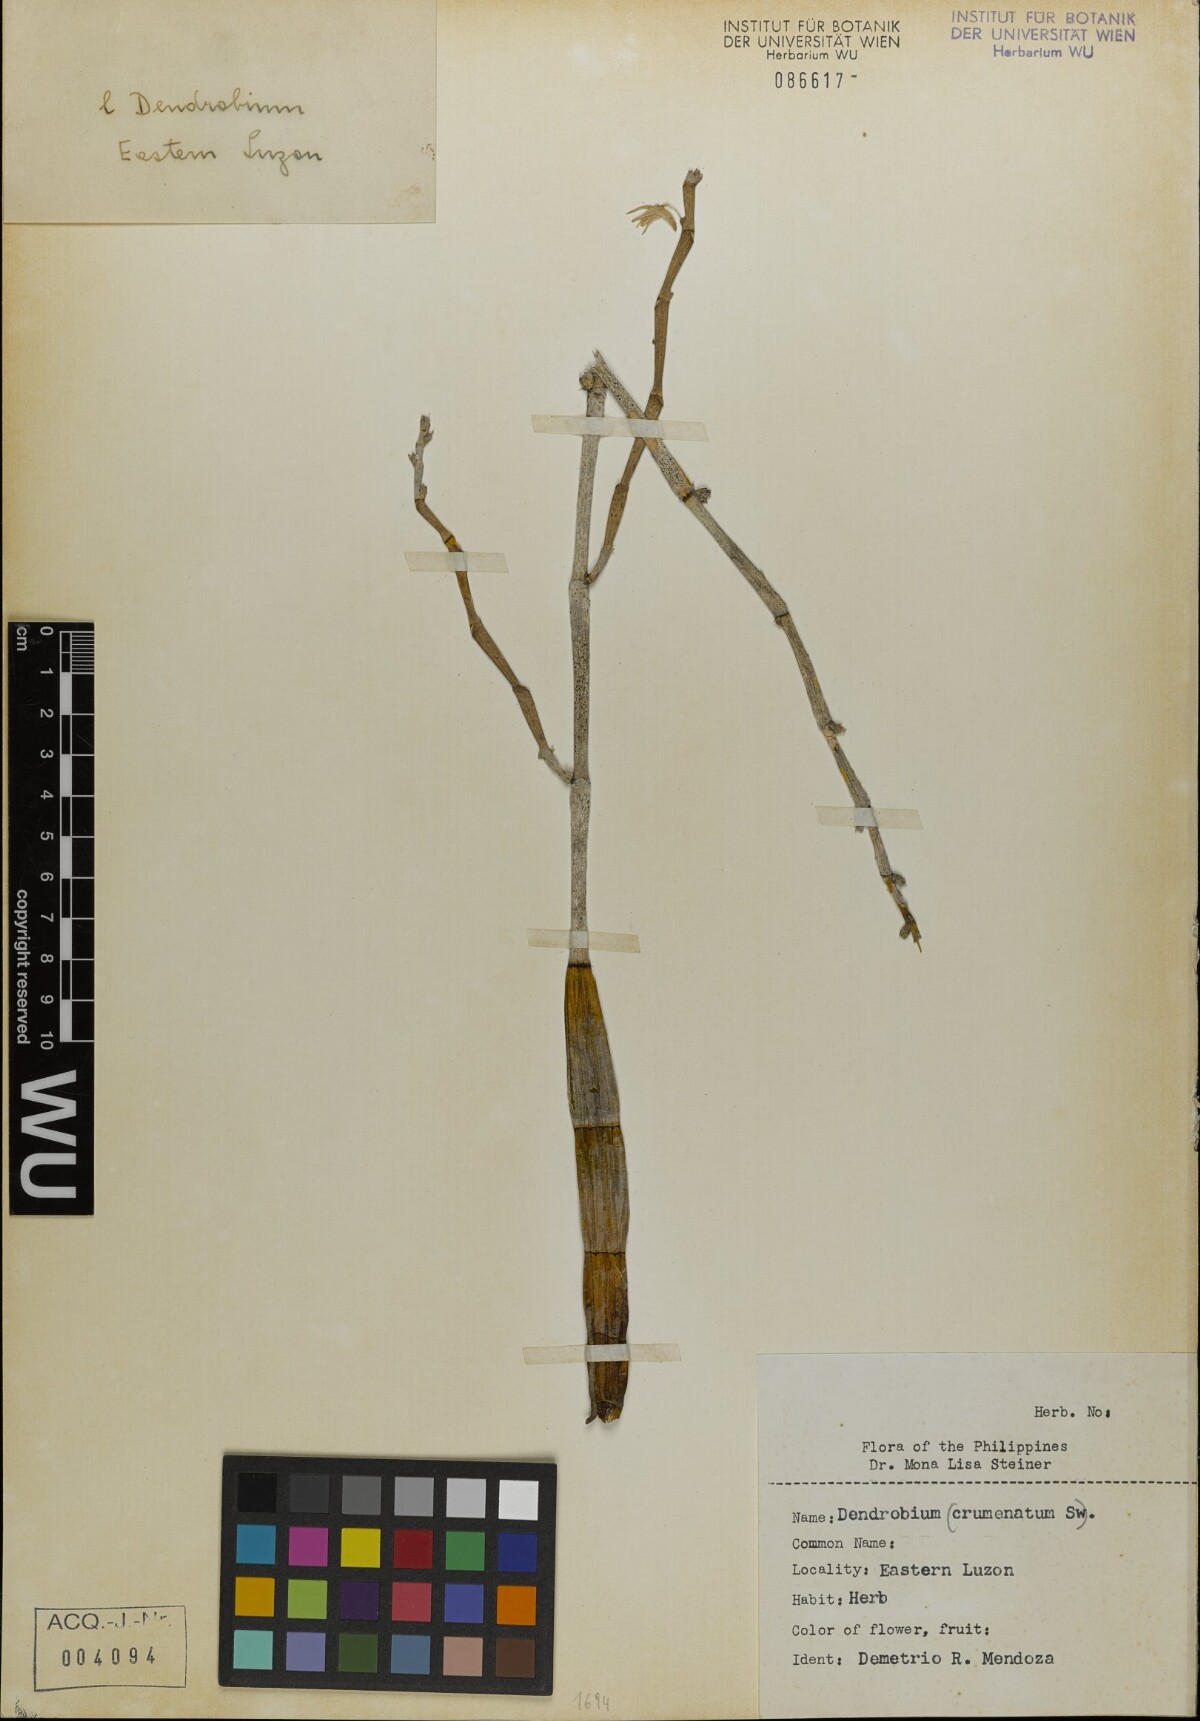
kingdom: Plantae
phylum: Tracheophyta
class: Liliopsida
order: Asparagales
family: Orchidaceae
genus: Dendrobium
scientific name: Dendrobium crumenatum
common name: Orchid
